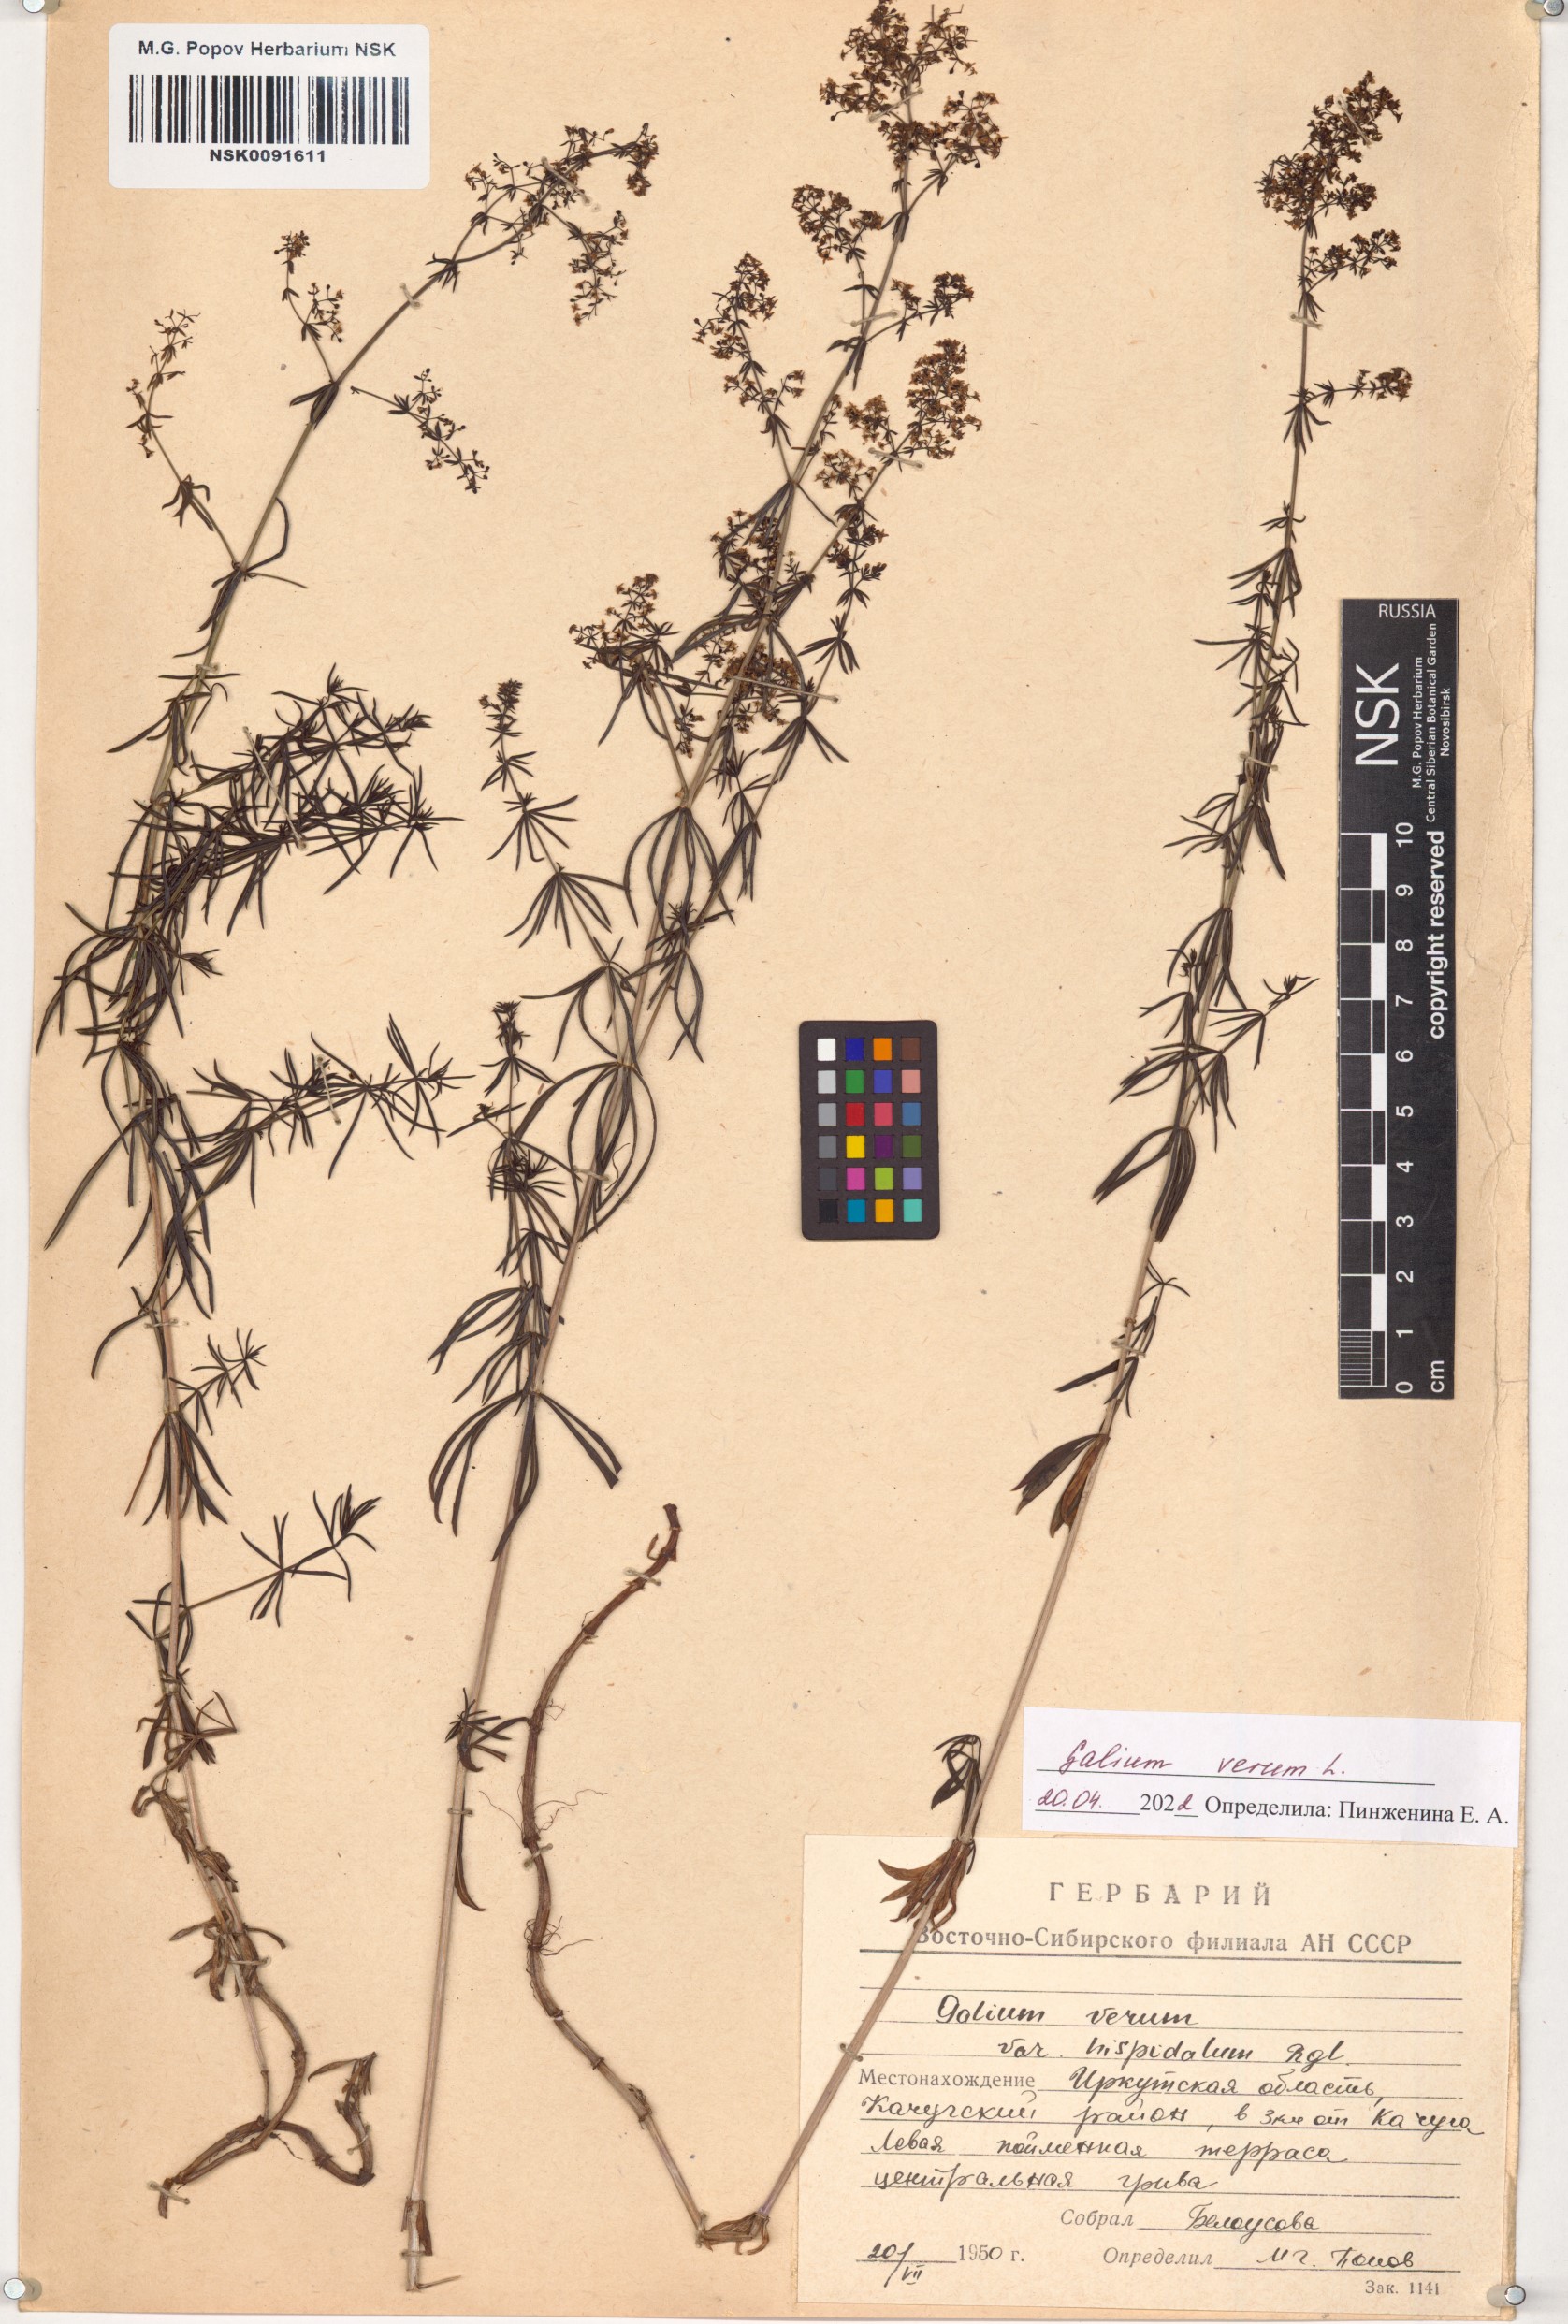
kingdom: Plantae
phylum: Tracheophyta
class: Magnoliopsida
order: Gentianales
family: Rubiaceae
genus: Galium
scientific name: Galium verum
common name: Lady's bedstraw
